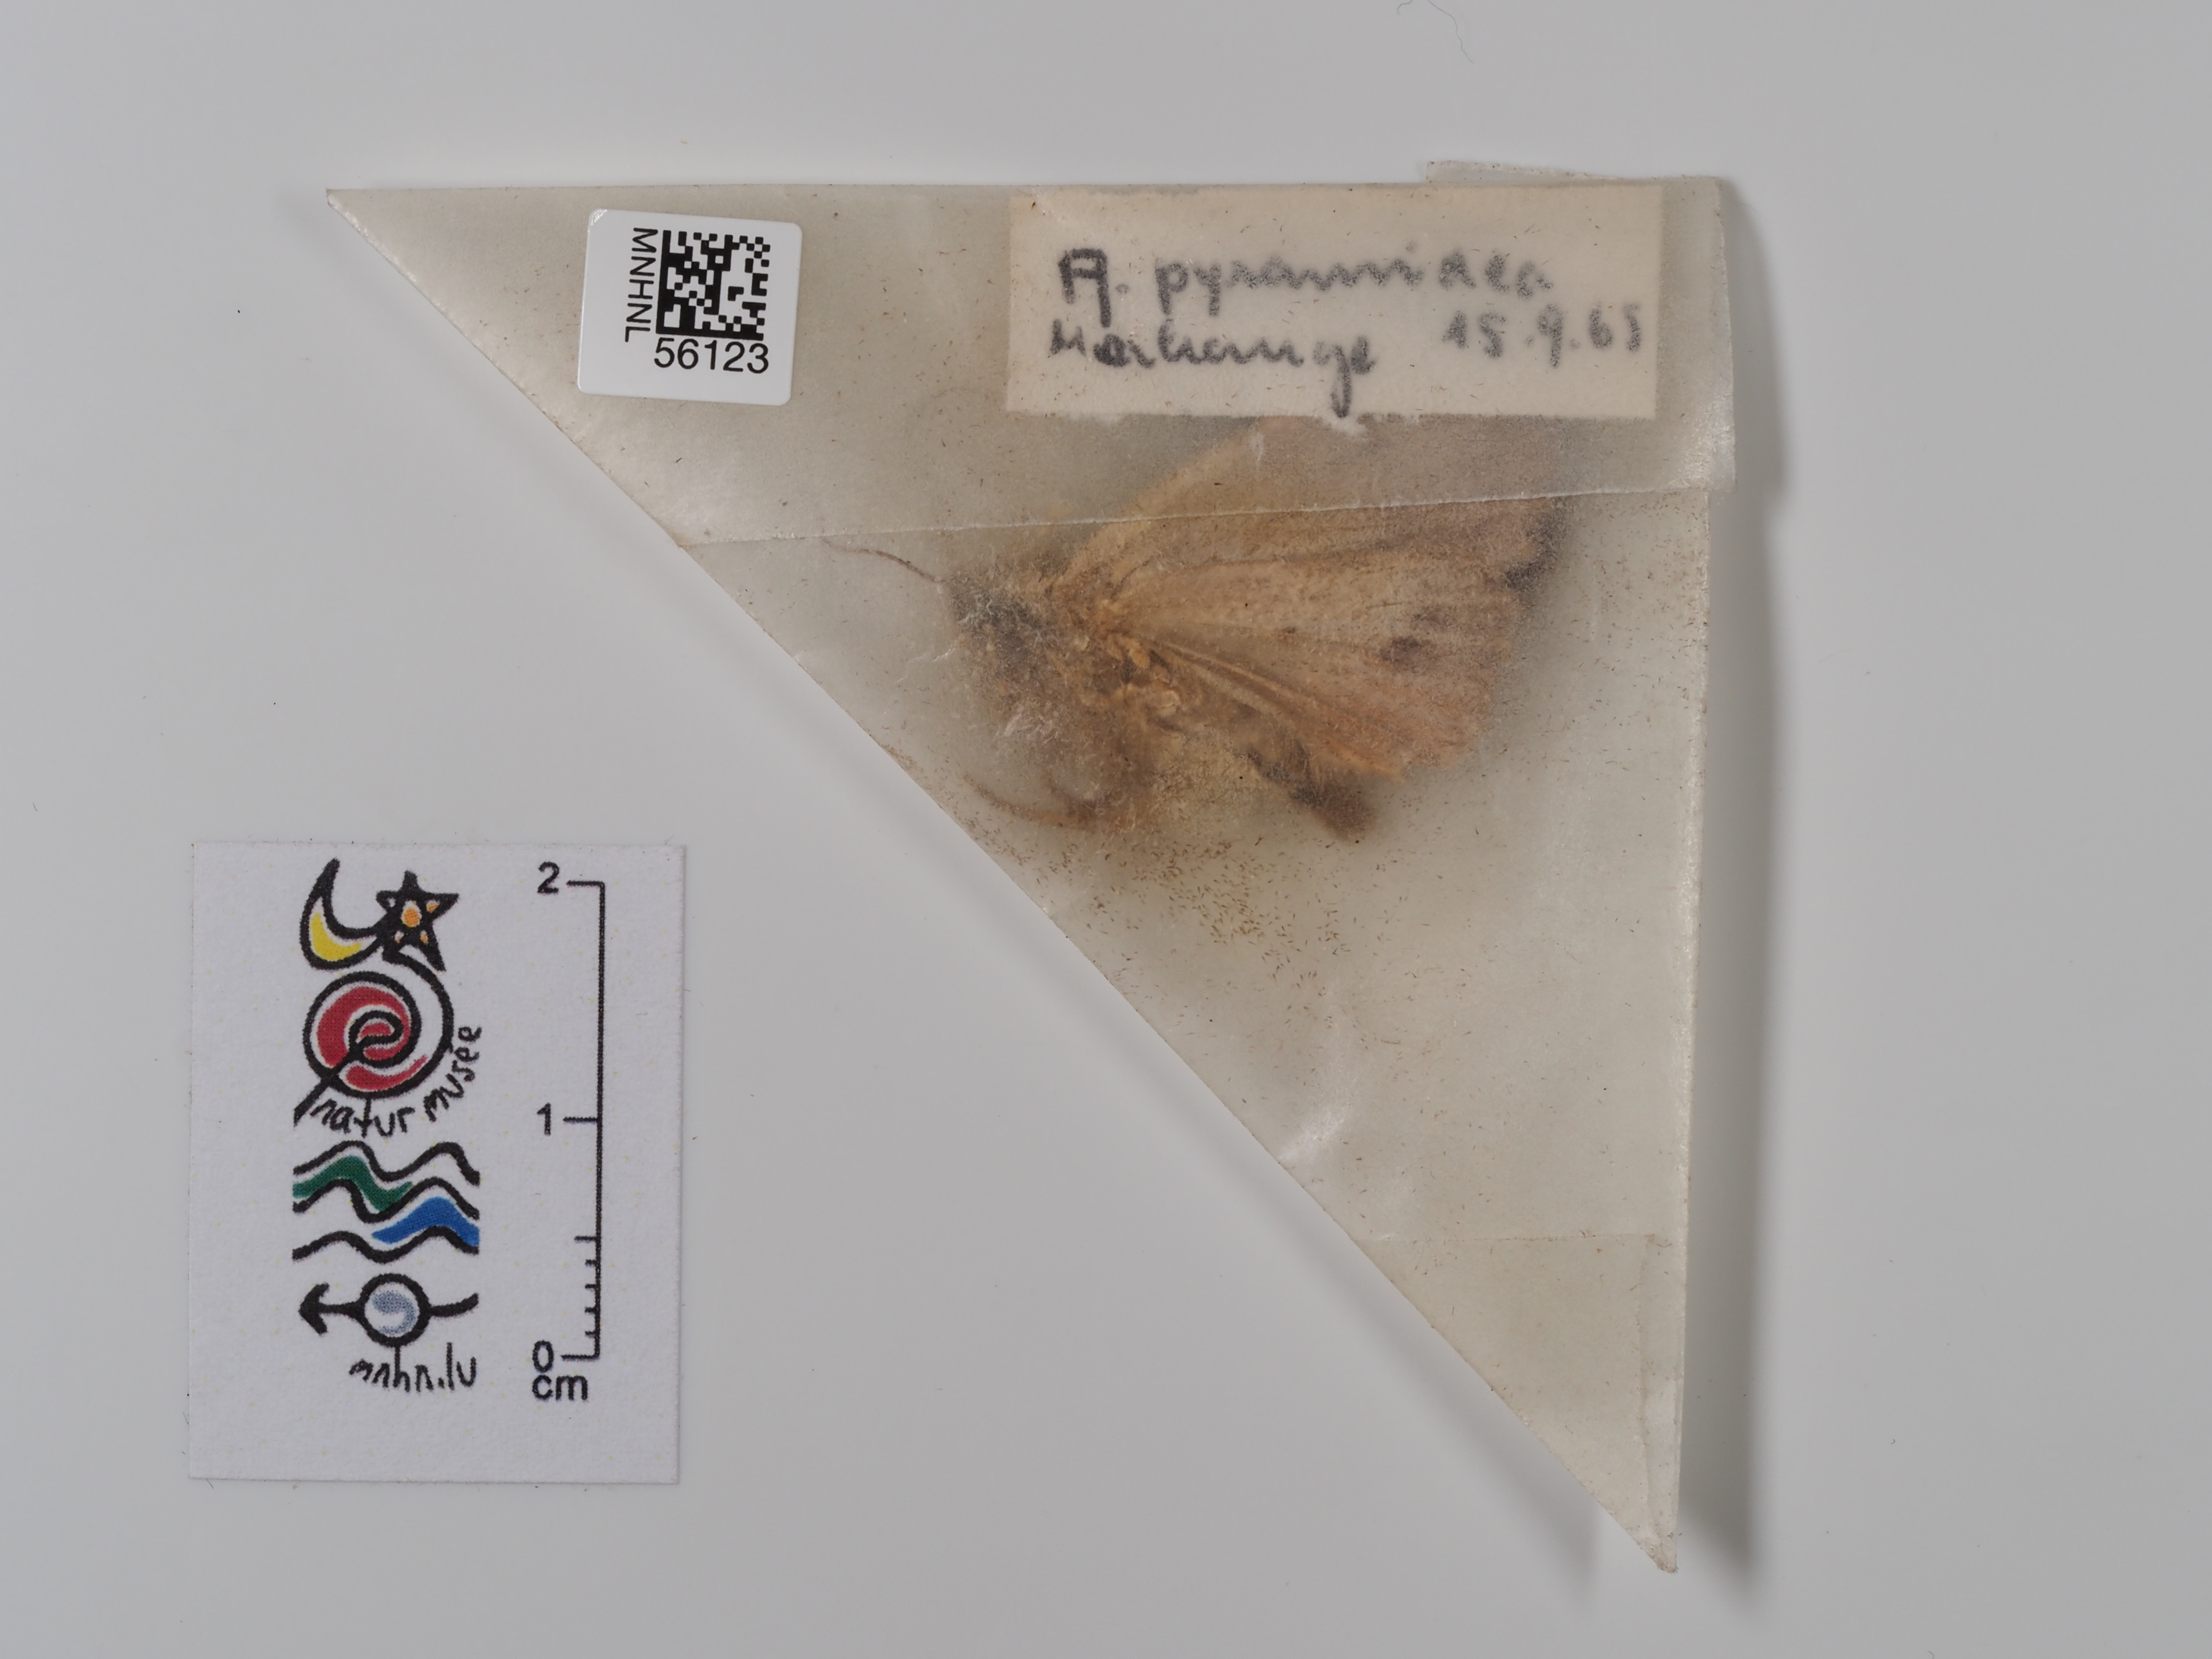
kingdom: Animalia
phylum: Arthropoda
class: Insecta
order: Lepidoptera
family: Noctuidae
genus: Amphipyra
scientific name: Amphipyra pyramidea
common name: Copper underwing
